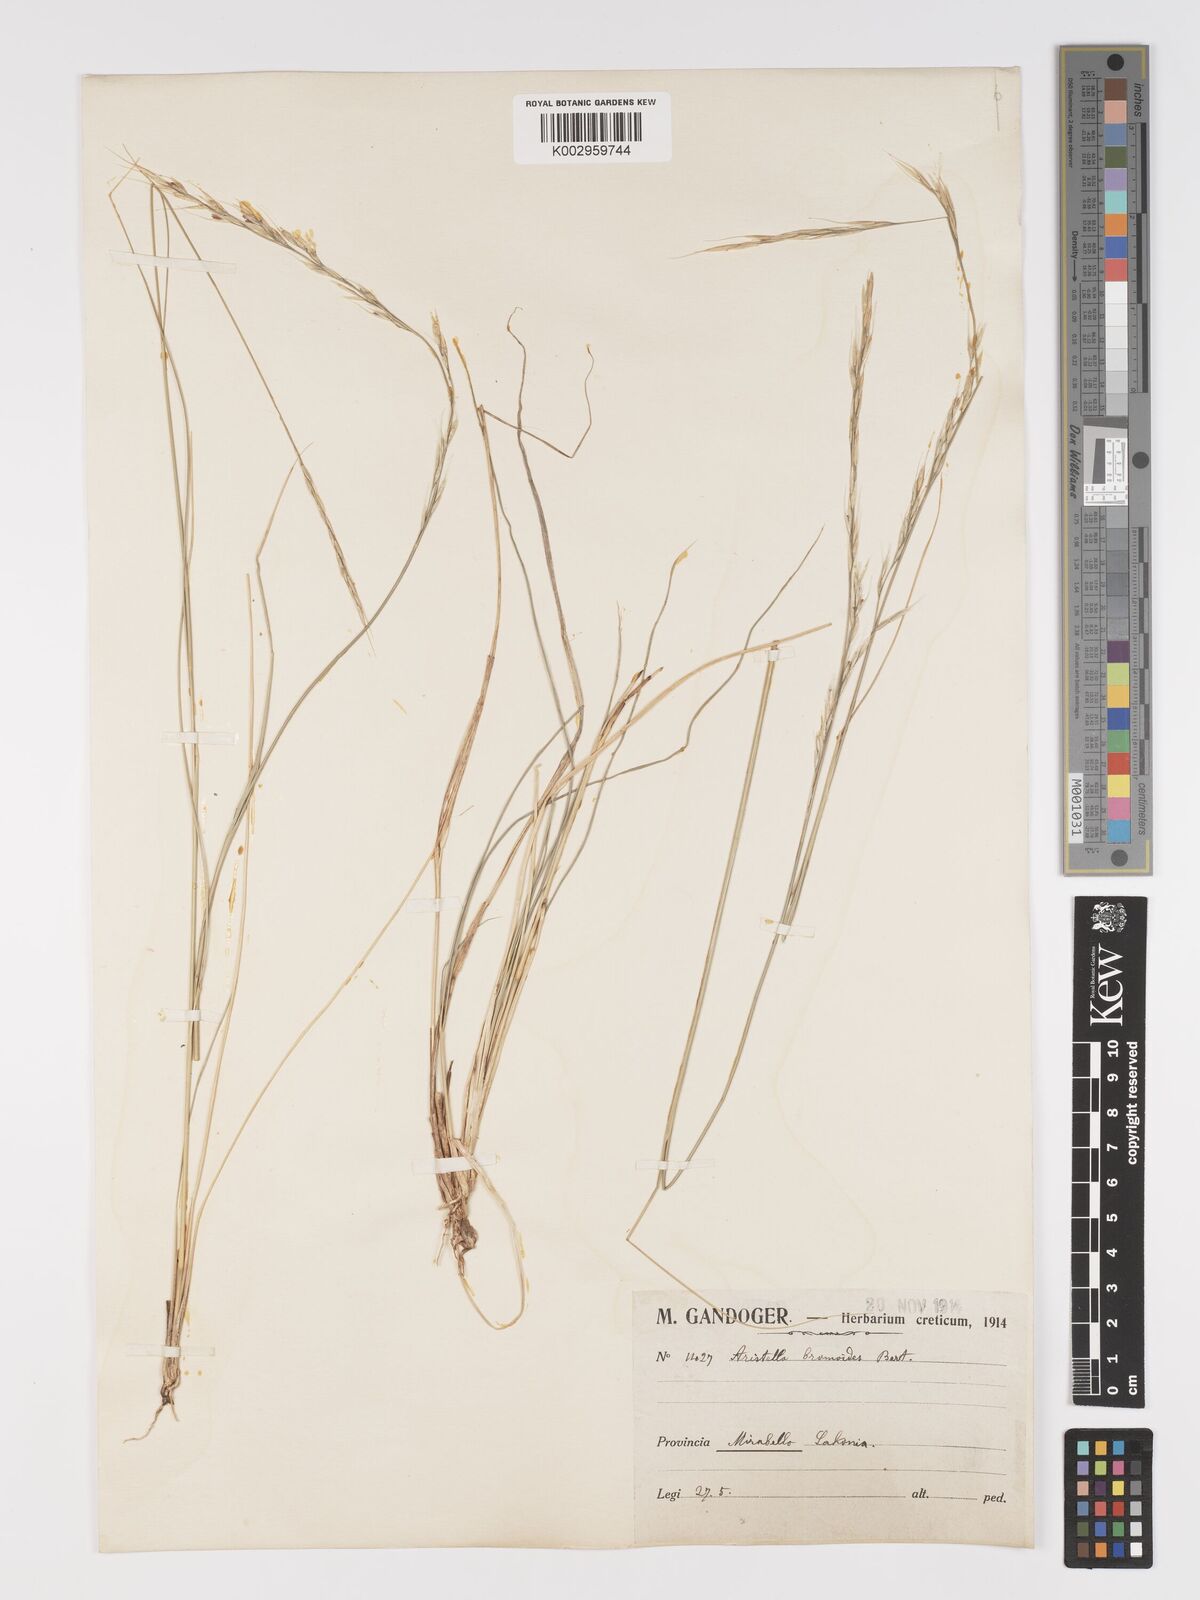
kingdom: Plantae
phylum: Tracheophyta
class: Liliopsida
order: Poales
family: Poaceae
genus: Achnatherum
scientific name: Achnatherum bromoides
